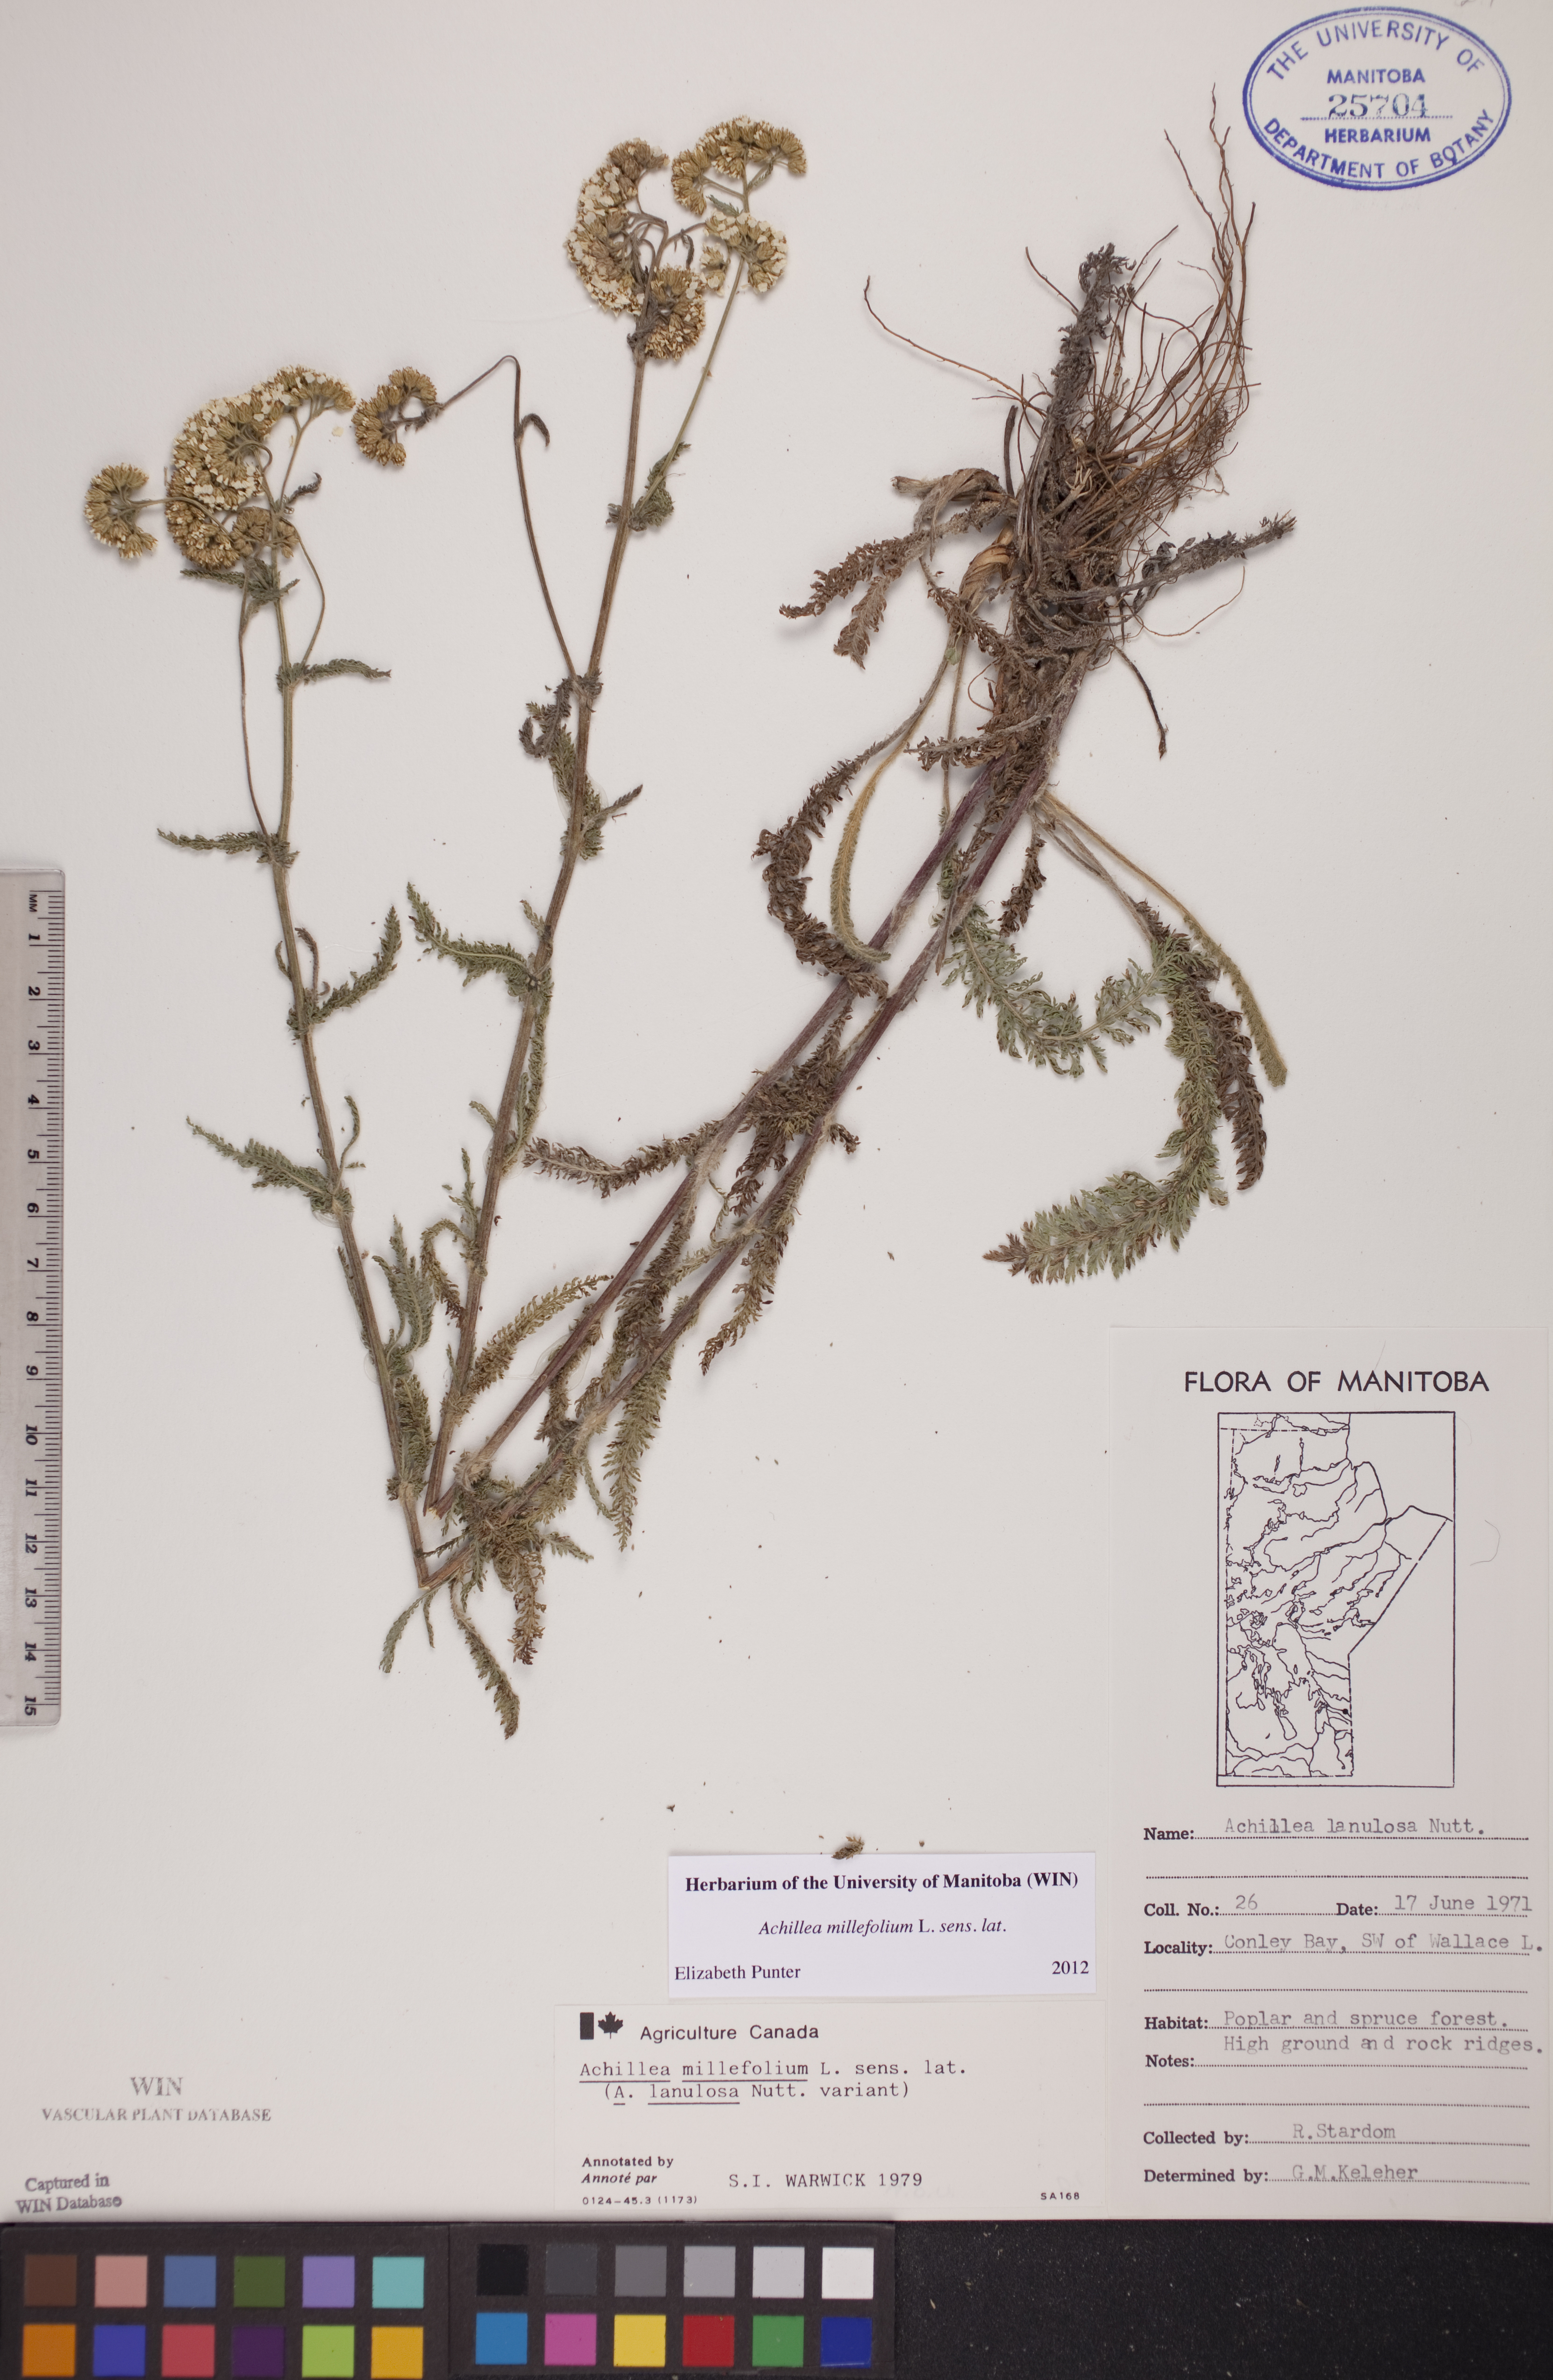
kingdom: Plantae
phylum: Tracheophyta
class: Magnoliopsida
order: Asterales
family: Asteraceae
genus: Achillea
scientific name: Achillea millefolium
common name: Yarrow
